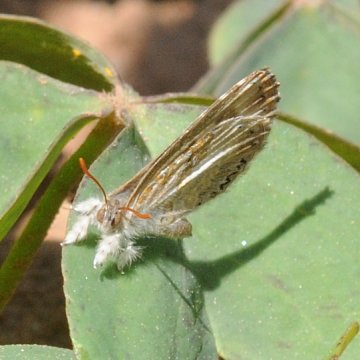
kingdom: Animalia
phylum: Arthropoda
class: Insecta
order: Lepidoptera
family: Lycaenidae
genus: Lachnocnema
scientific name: Lachnocnema bibulus
